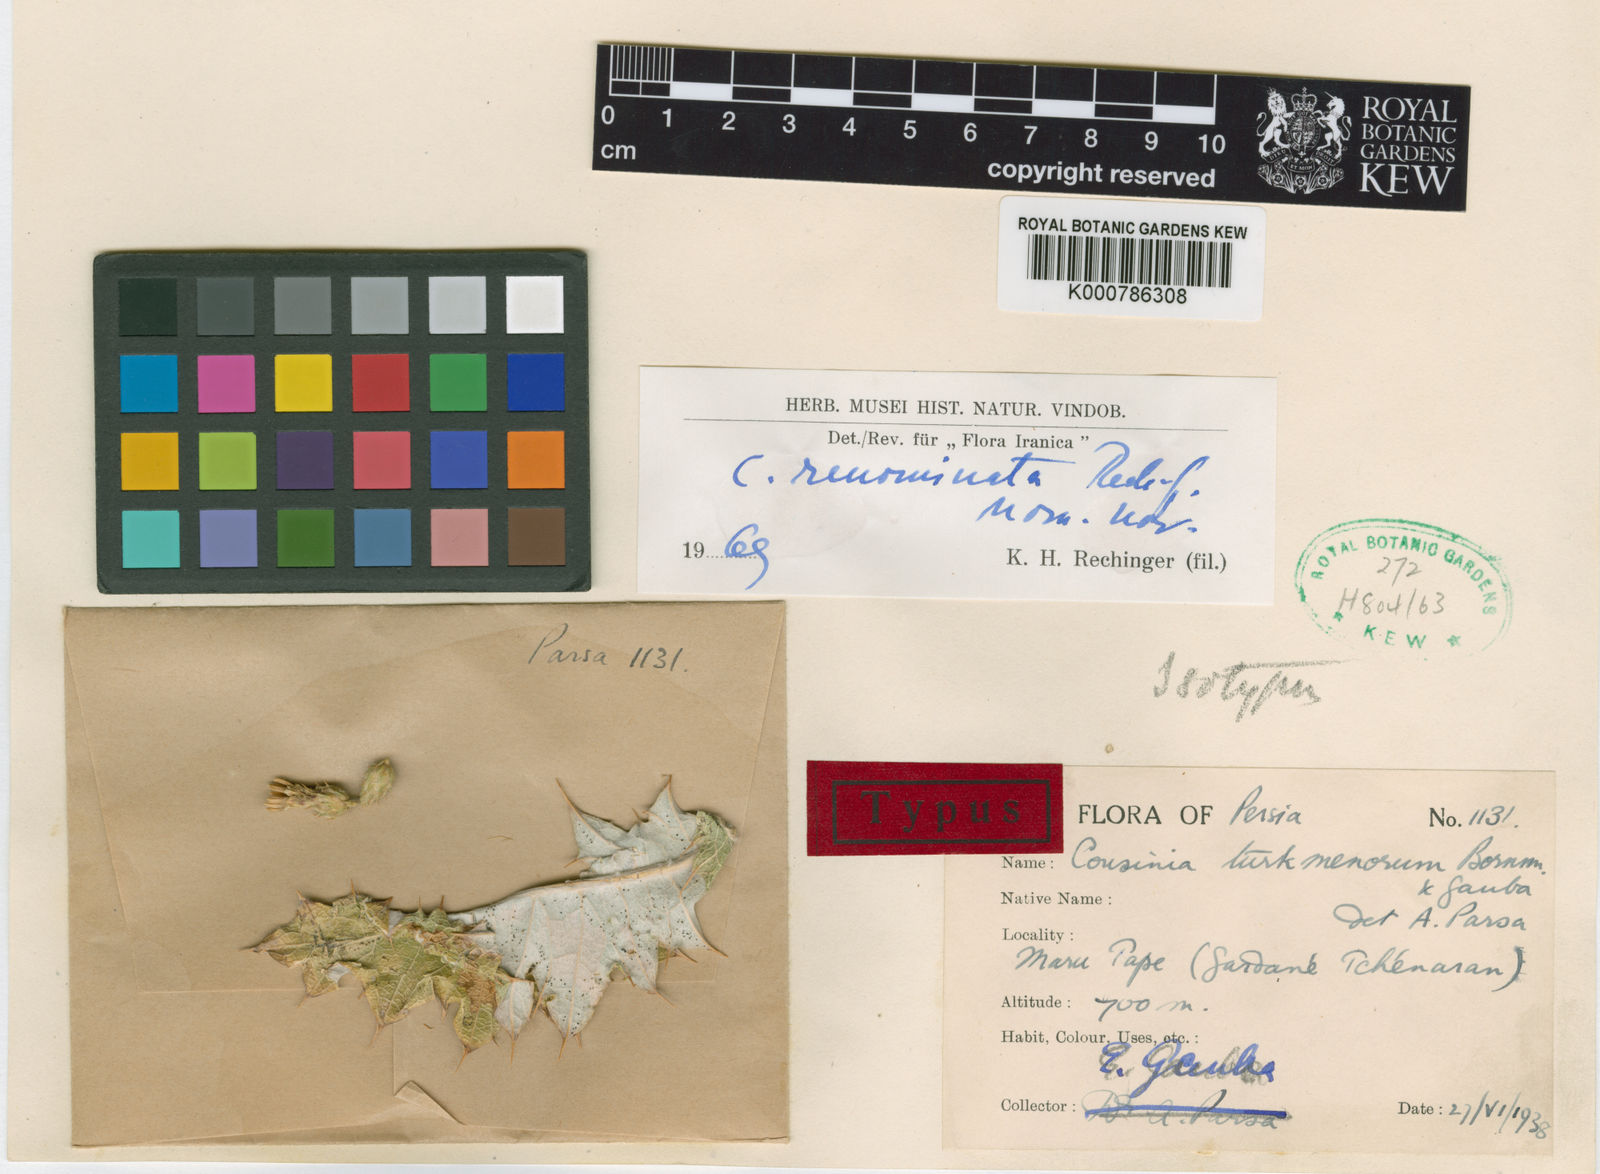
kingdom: Plantae
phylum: Tracheophyta
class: Magnoliopsida
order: Asterales
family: Asteraceae
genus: Cousinia
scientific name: Cousinia renominata
